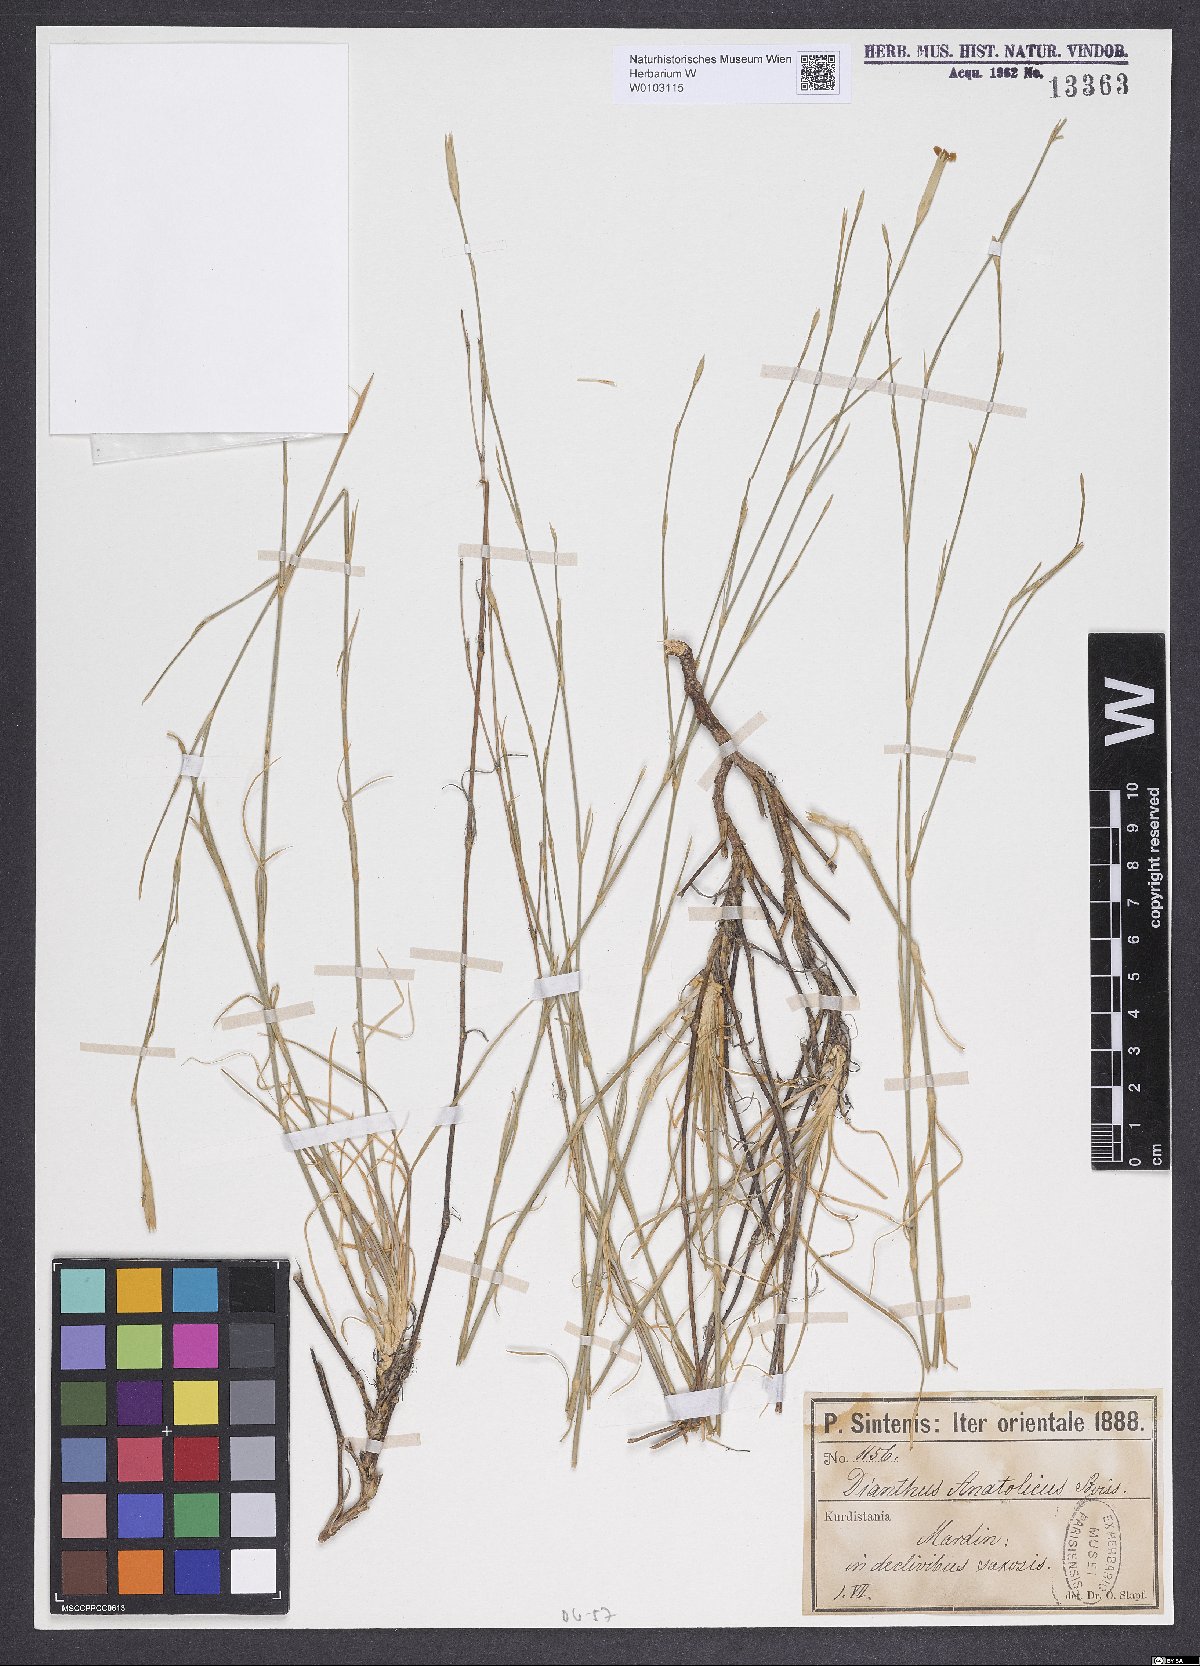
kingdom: Plantae
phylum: Tracheophyta
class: Magnoliopsida
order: Caryophyllales
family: Caryophyllaceae
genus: Dianthus
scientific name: Dianthus anatolicus
